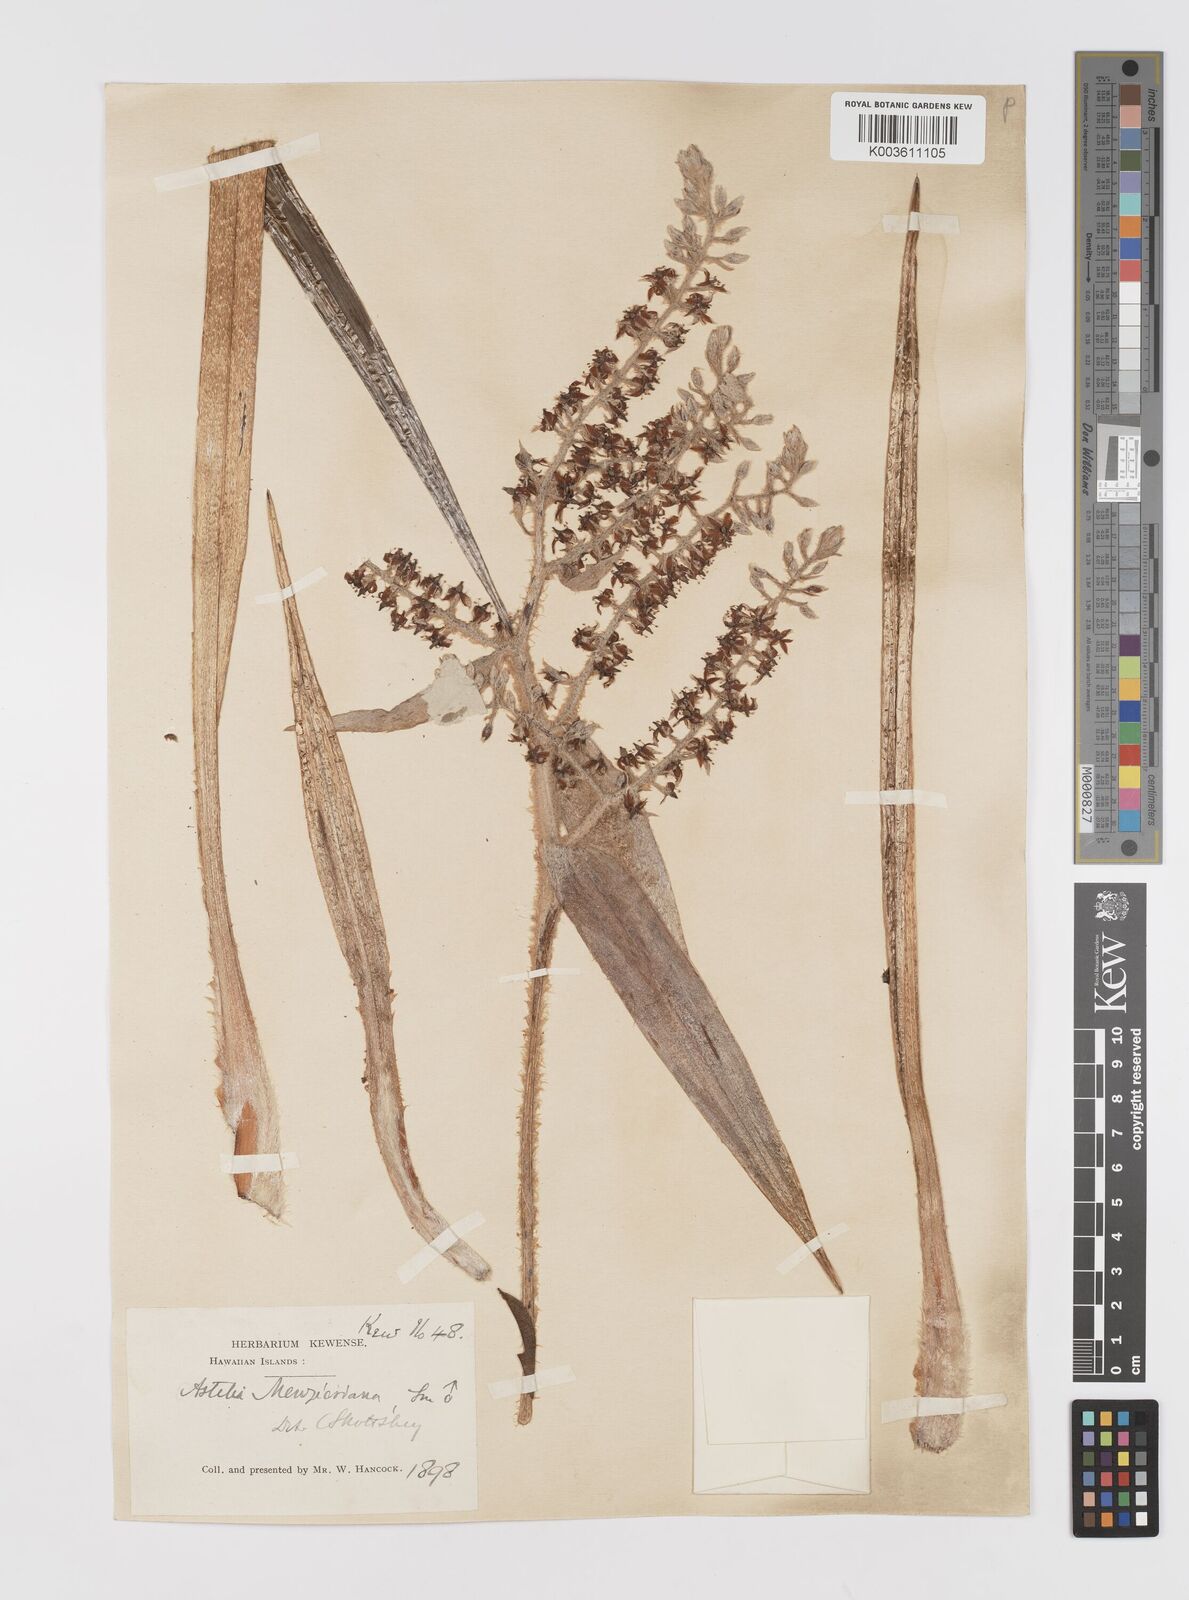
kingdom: Plantae
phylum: Tracheophyta
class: Liliopsida
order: Asparagales
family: Asteliaceae
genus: Astelia
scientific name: Astelia menziesiana
